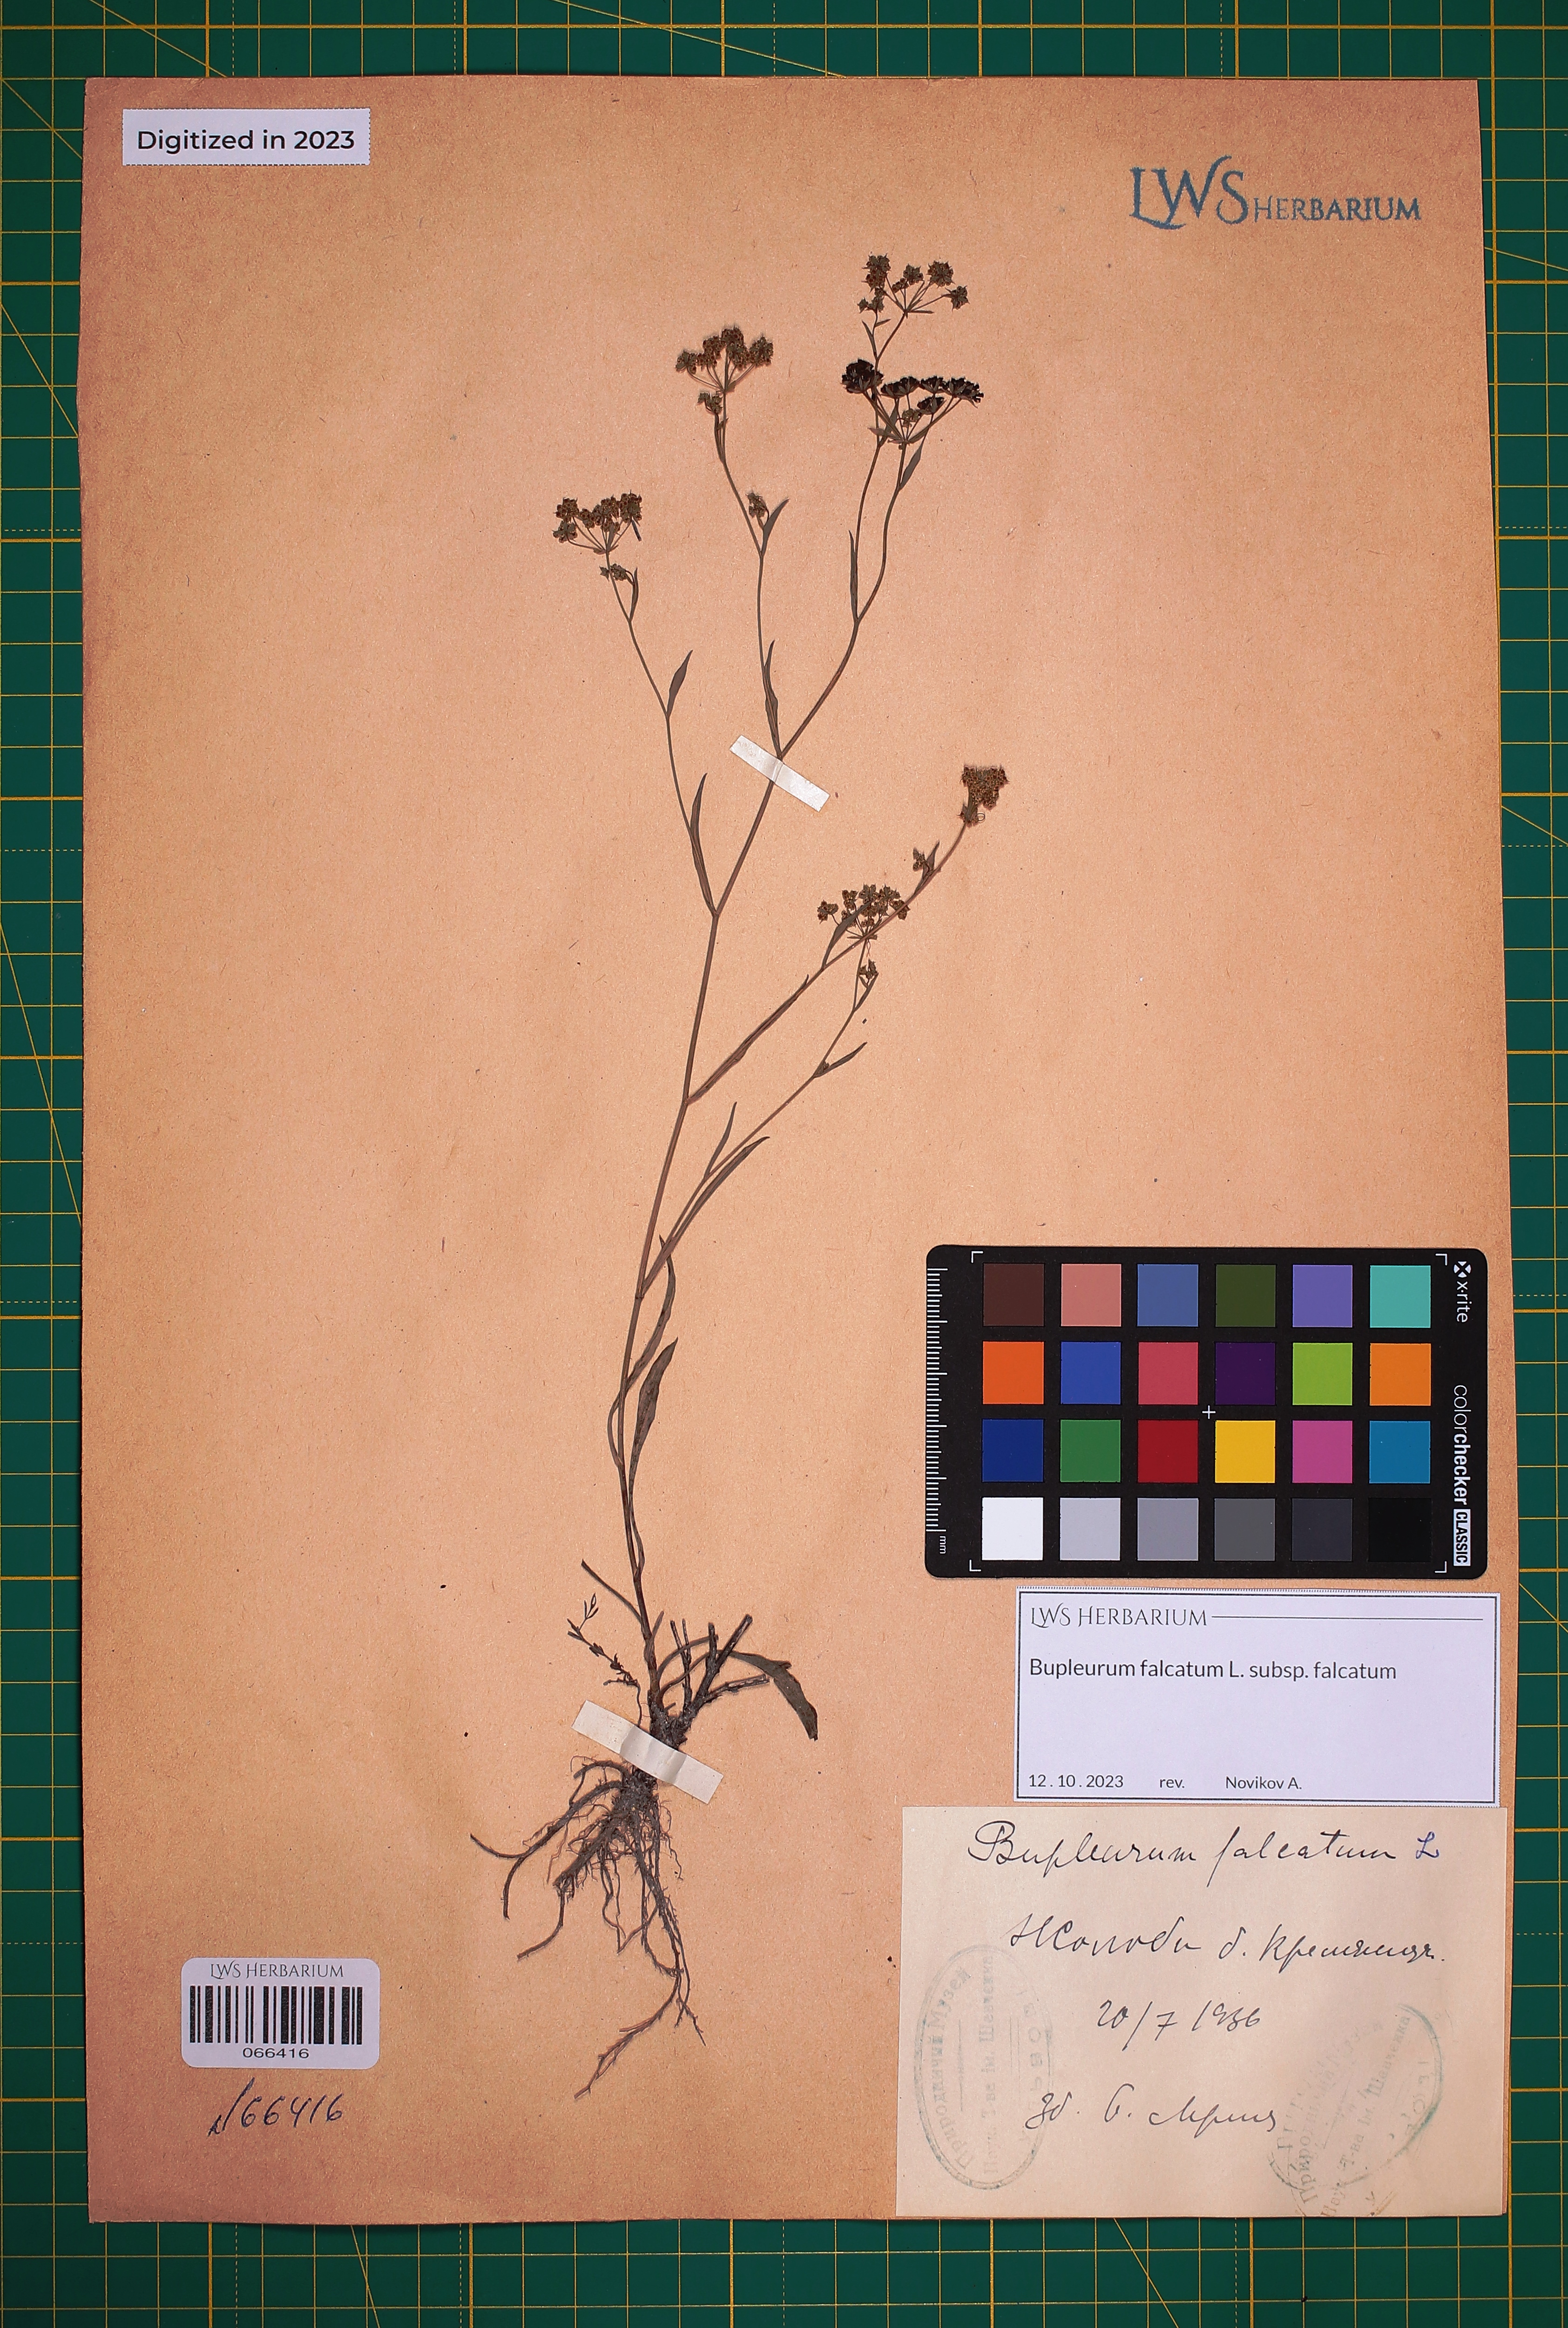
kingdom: Plantae
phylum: Tracheophyta
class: Magnoliopsida
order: Apiales
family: Apiaceae
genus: Bupleurum
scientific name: Bupleurum falcatum
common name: Sickle-leaved hare's-ear
